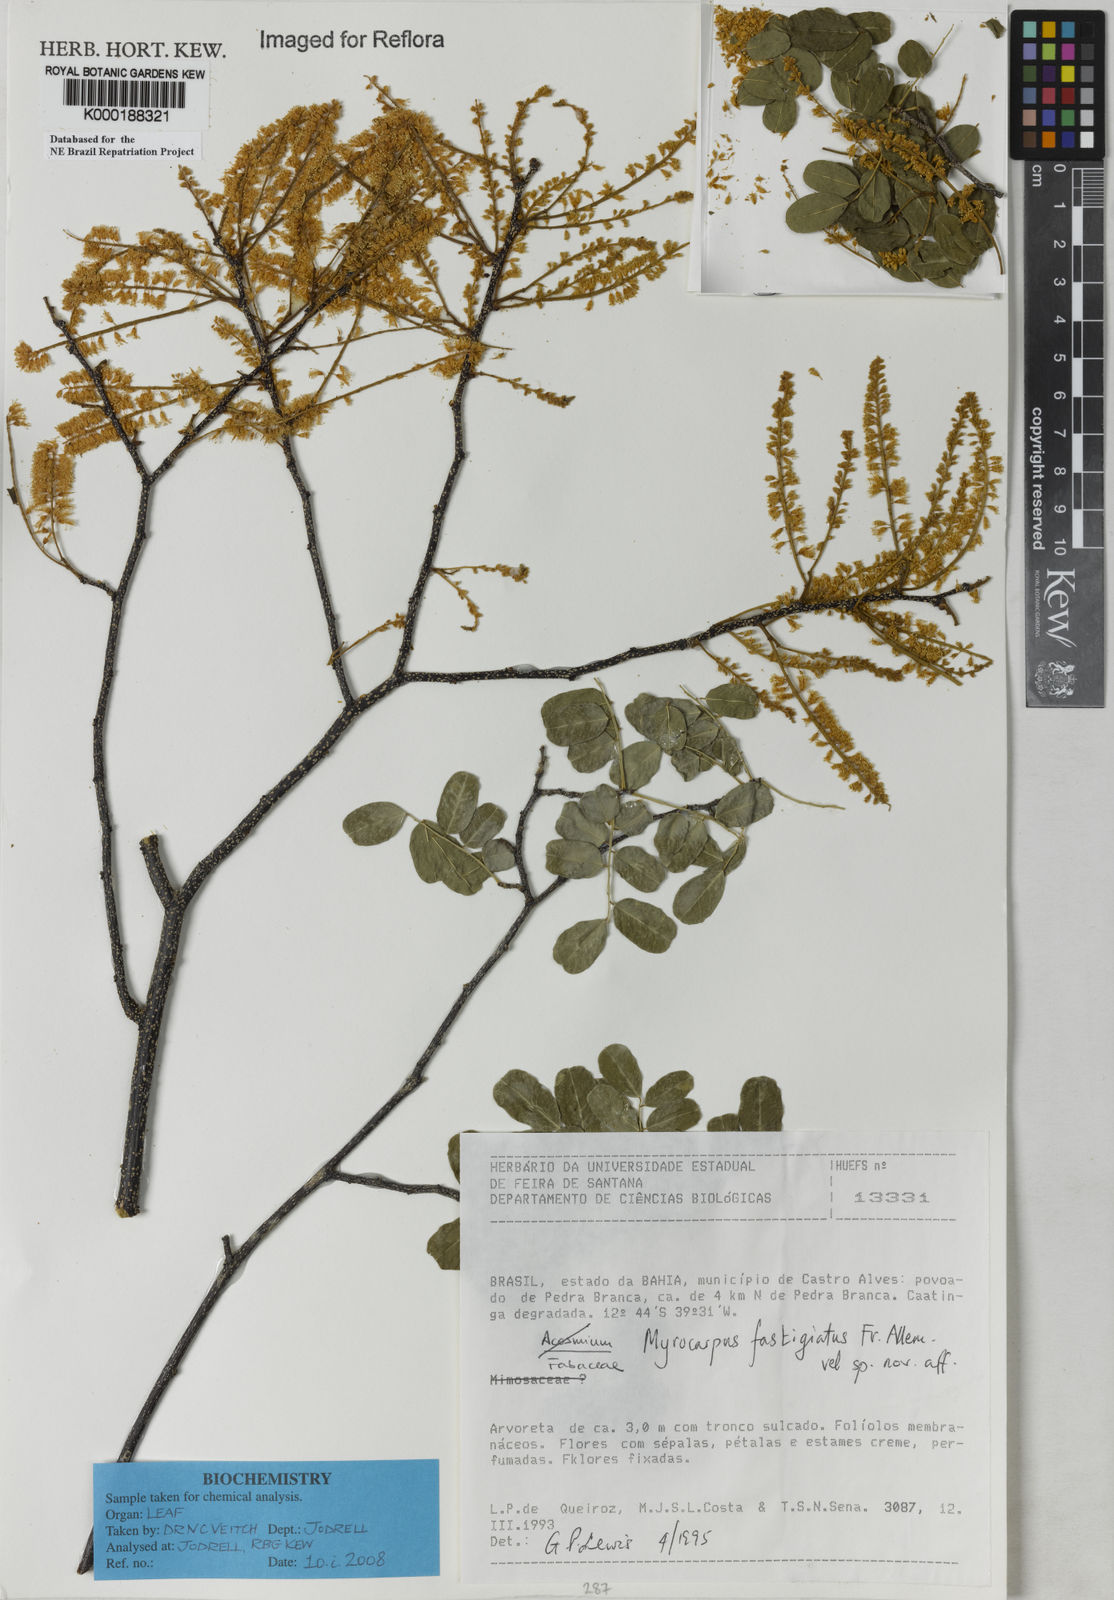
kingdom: Plantae
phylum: Tracheophyta
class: Magnoliopsida
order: Fabales
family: Fabaceae
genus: Myrocarpus
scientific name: Myrocarpus fastigiatus
